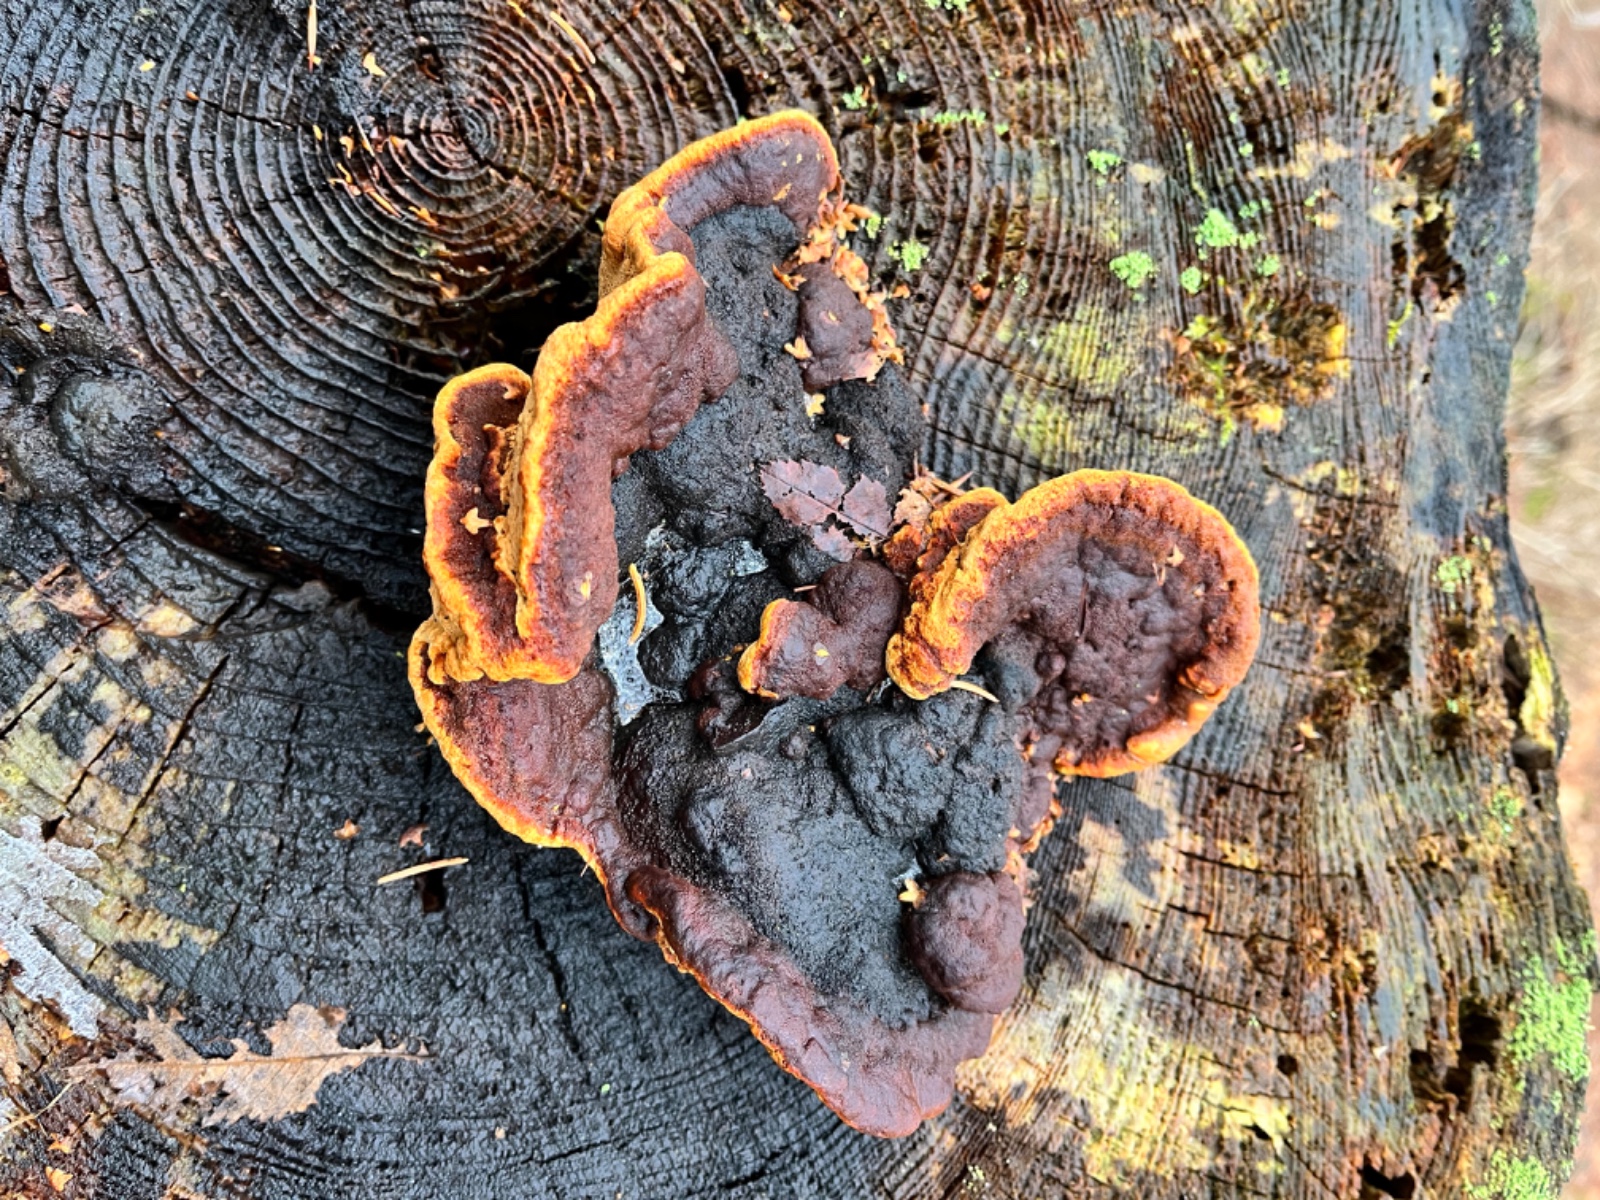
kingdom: Fungi
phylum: Basidiomycota
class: Agaricomycetes
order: Gloeophyllales
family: Gloeophyllaceae
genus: Gloeophyllum
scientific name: Gloeophyllum sepiarium
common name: fyrre-korkhat
